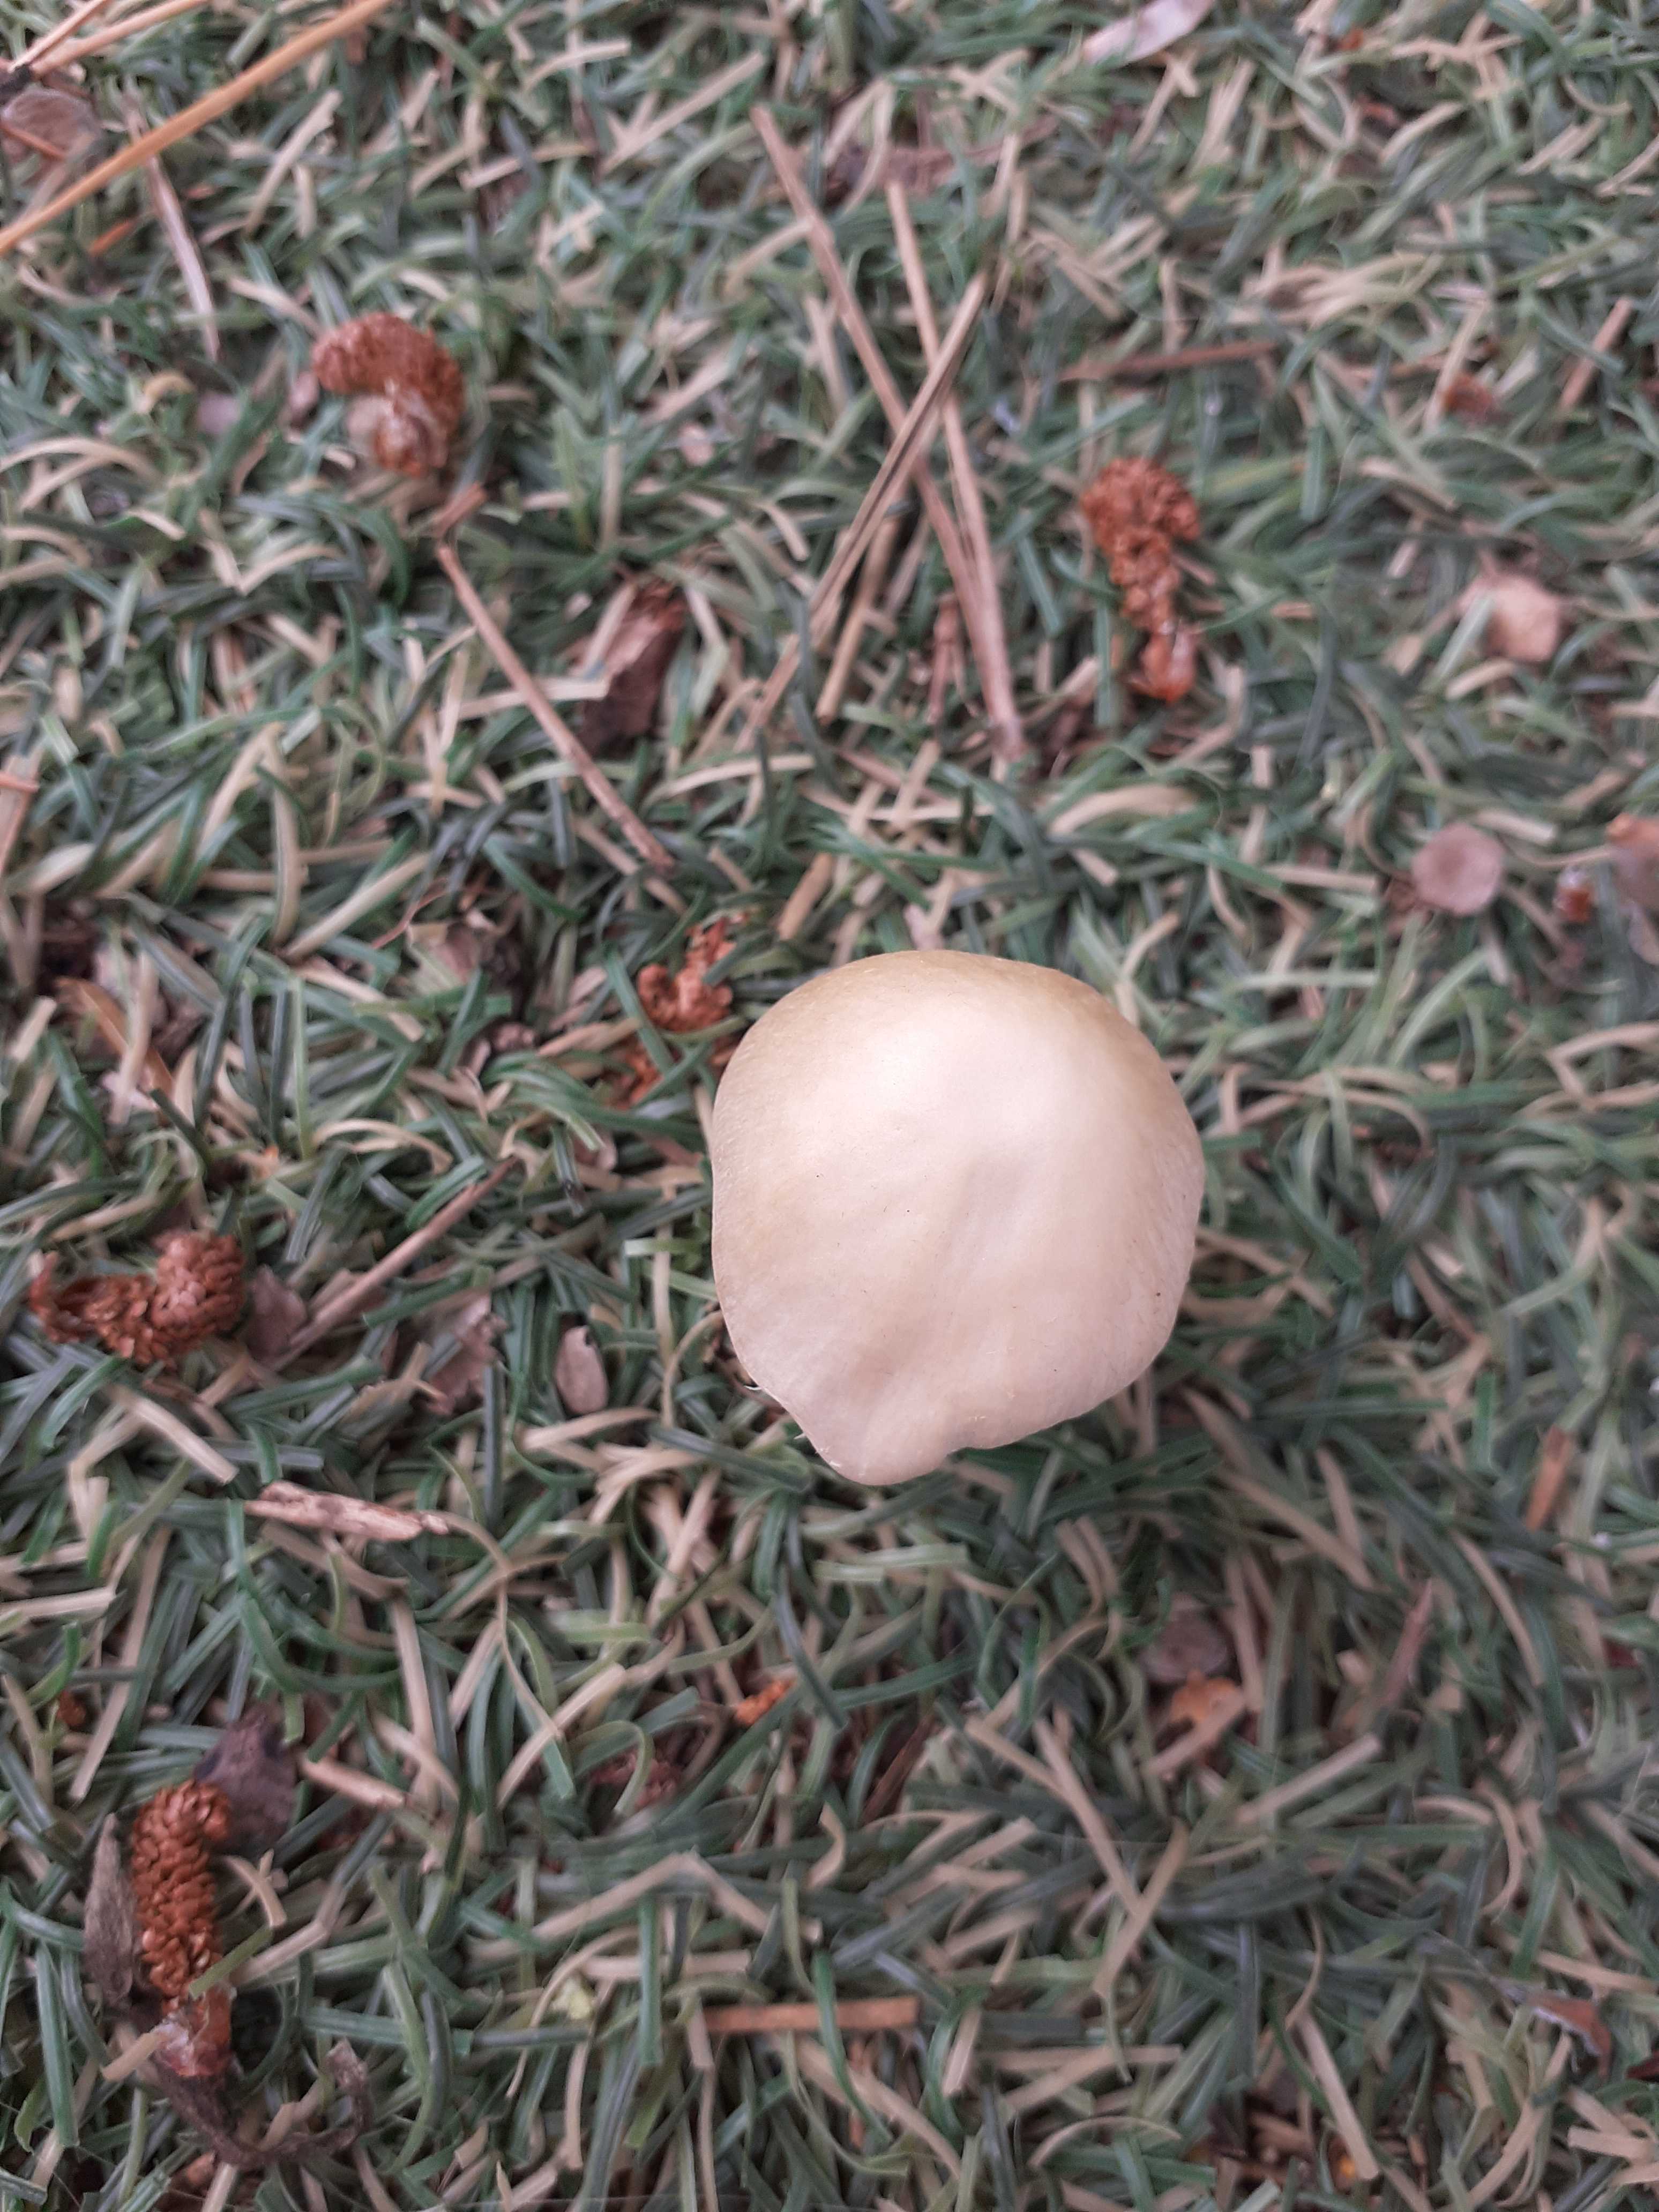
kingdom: Fungi
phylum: Basidiomycota
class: Agaricomycetes
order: Agaricales
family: Psathyrellaceae
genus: Candolleomyces
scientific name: Candolleomyces candolleanus
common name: Candolles mørkhat
